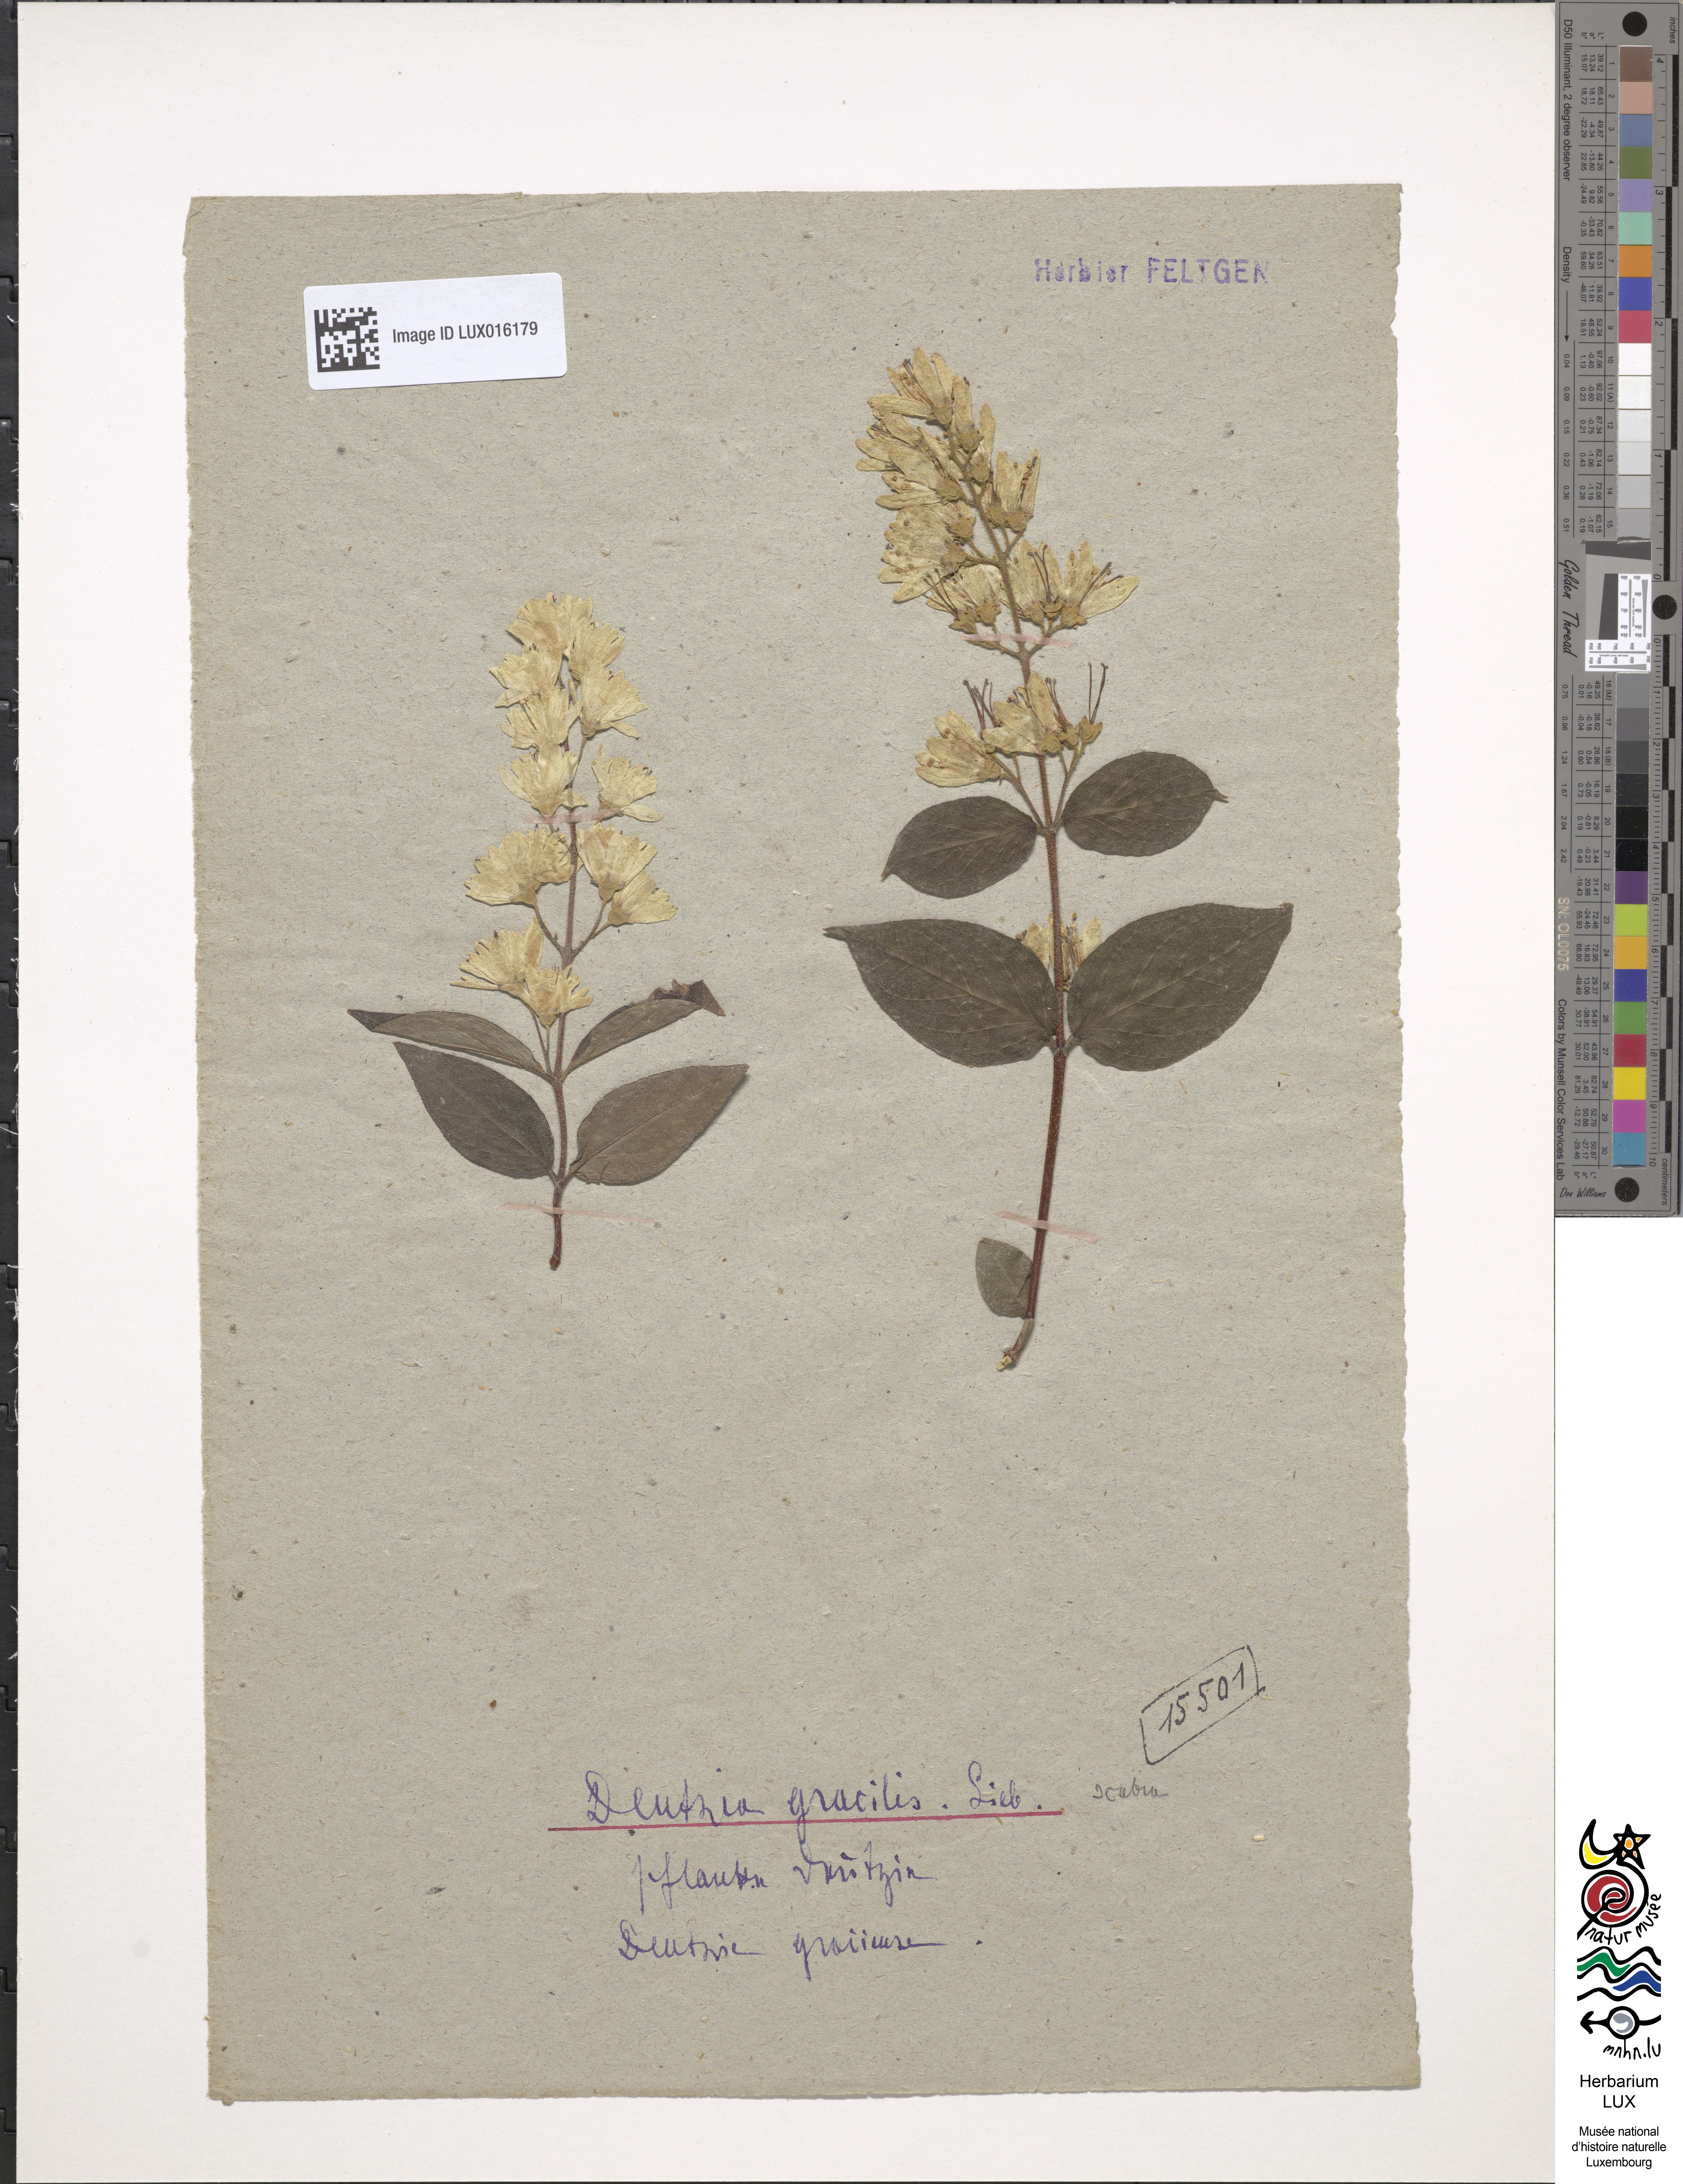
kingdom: Plantae
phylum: Tracheophyta
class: Magnoliopsida
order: Cornales
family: Hydrangeaceae
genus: Deutzia
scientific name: Deutzia gracilis
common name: Slender pride of rochester
